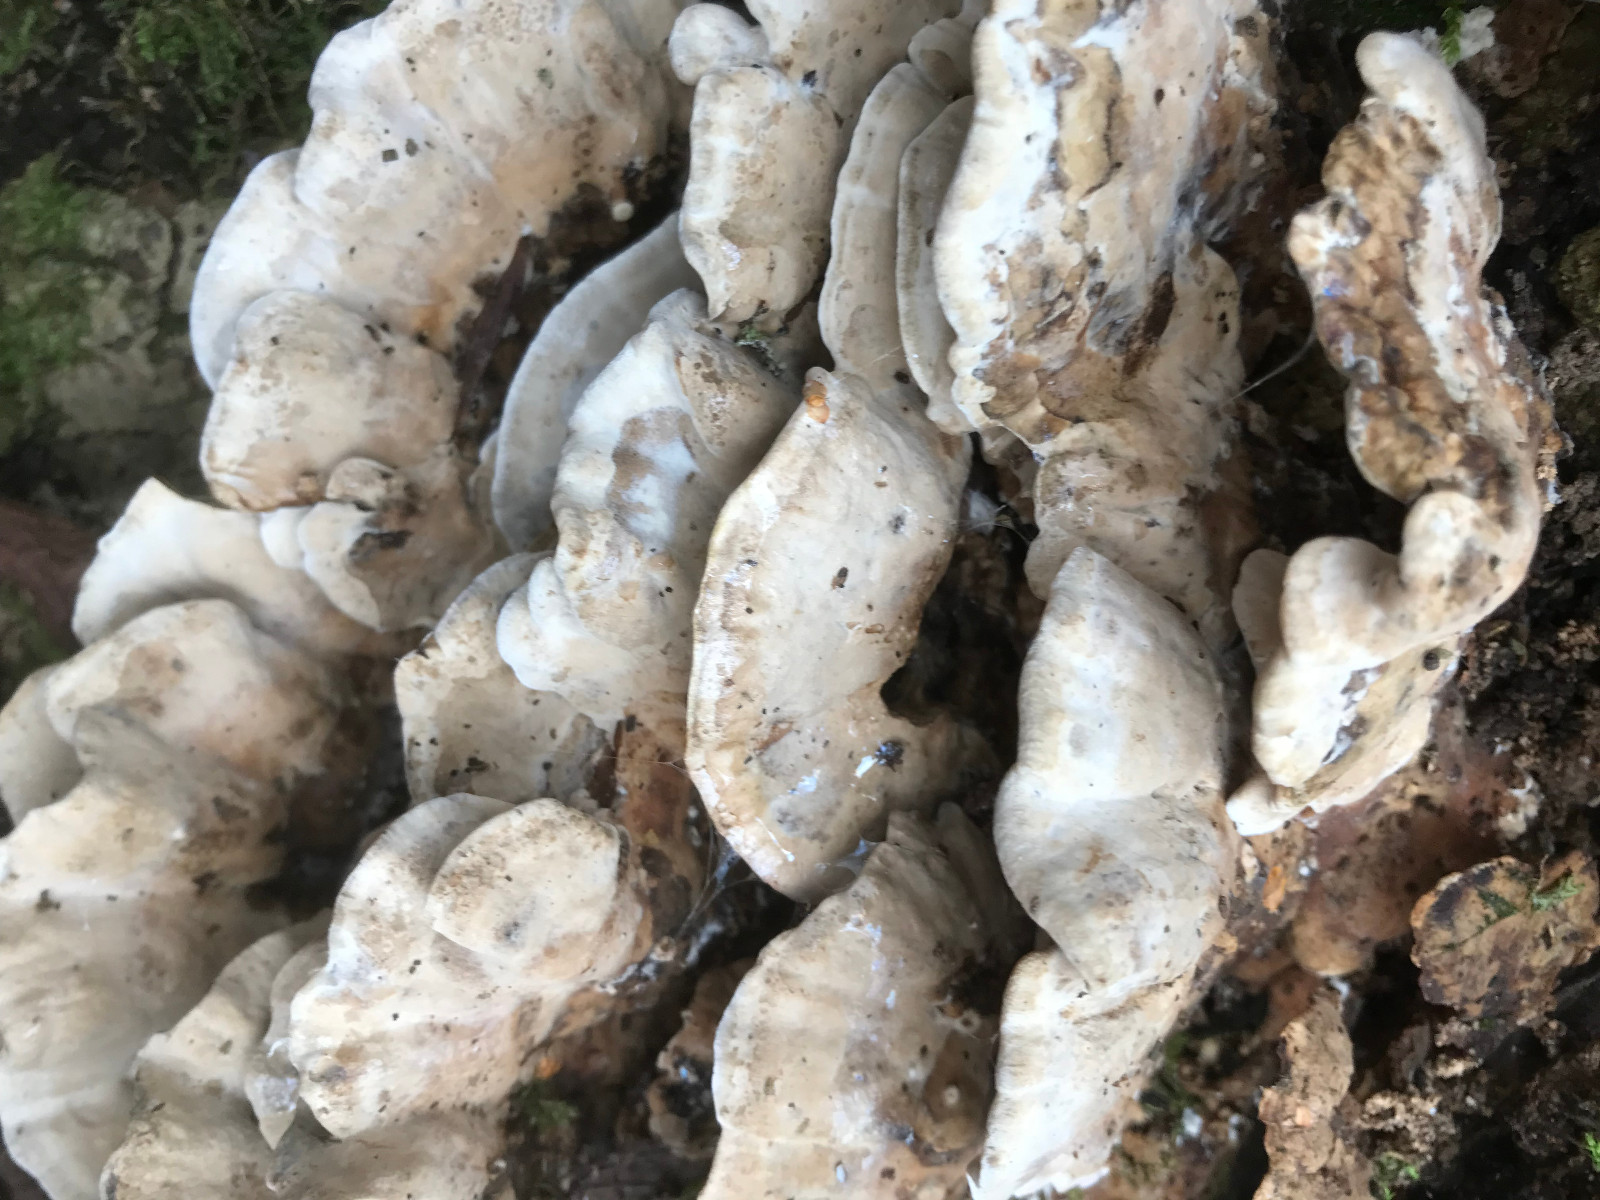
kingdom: Fungi
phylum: Basidiomycota
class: Agaricomycetes
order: Polyporales
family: Phanerochaetaceae
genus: Bjerkandera
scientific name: Bjerkandera fumosa
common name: grågul sodporesvamp
